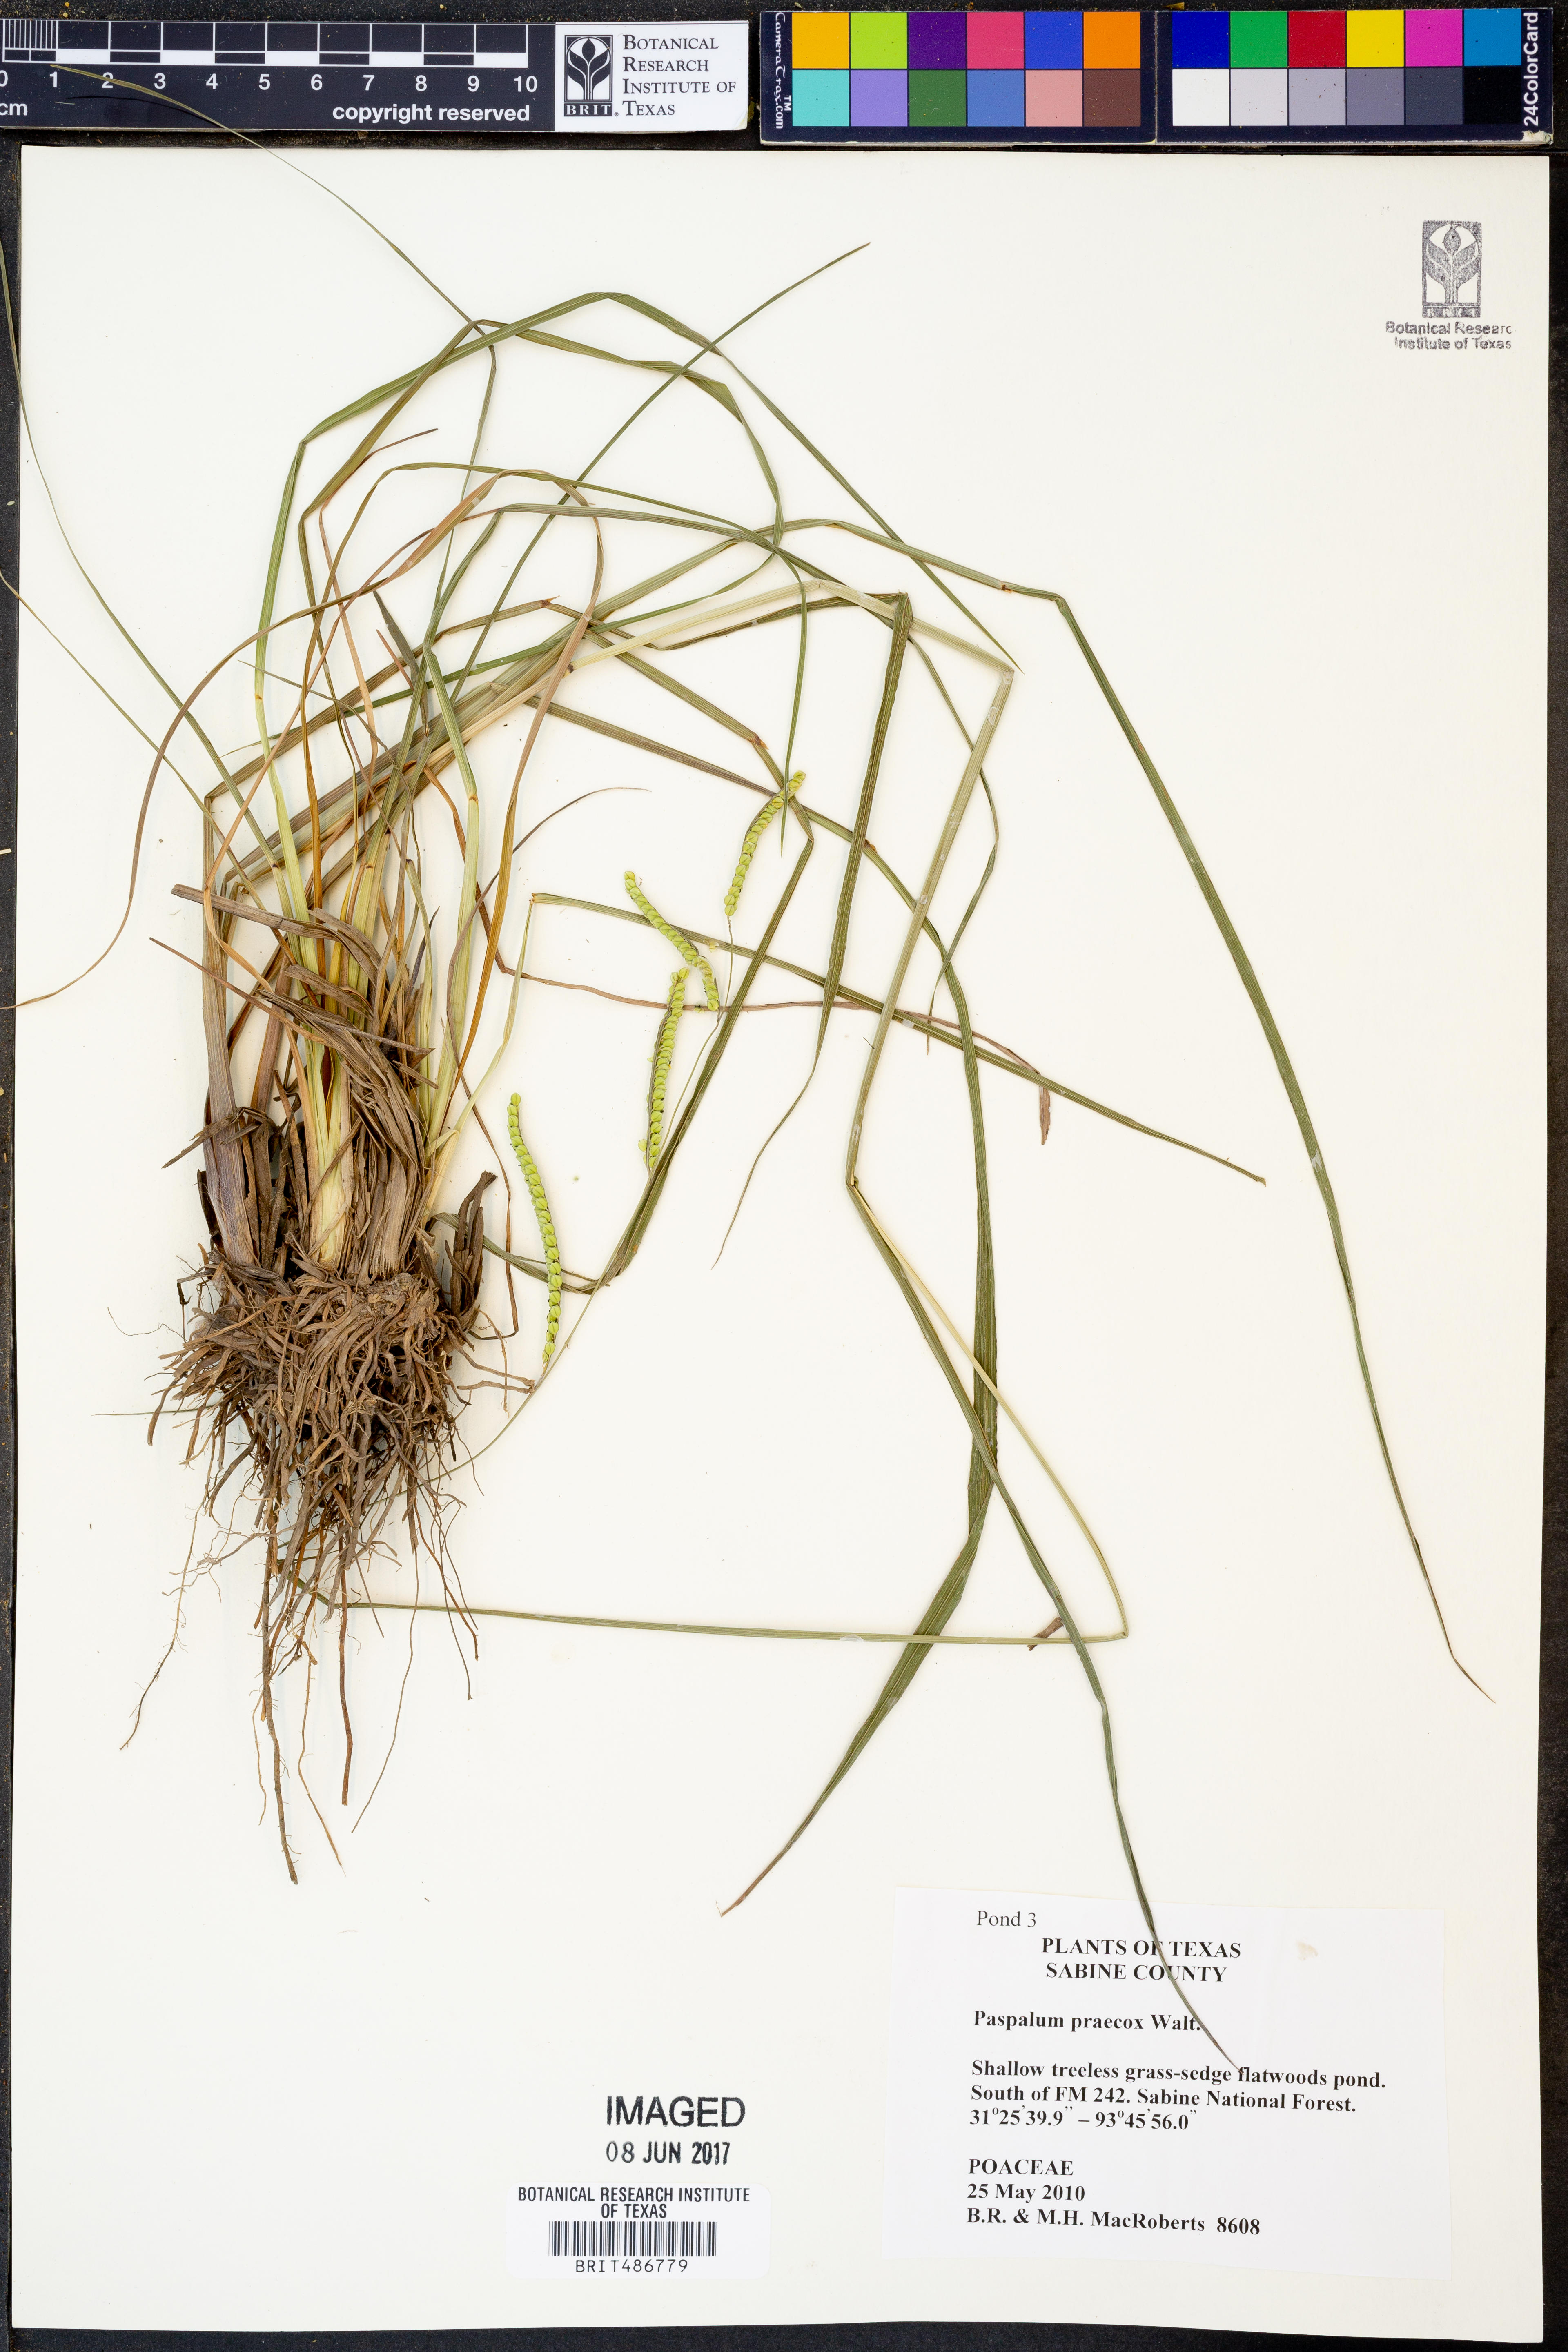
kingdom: Plantae
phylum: Tracheophyta
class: Liliopsida
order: Poales
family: Poaceae
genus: Paspalum
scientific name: Paspalum praecox
